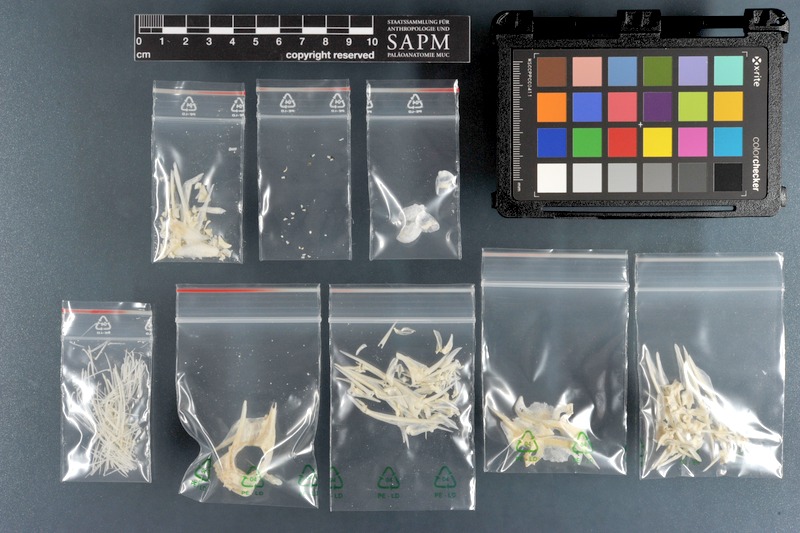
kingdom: Animalia
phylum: Chordata
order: Perciformes
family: Acanthuridae
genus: Acanthurus
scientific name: Acanthurus leucosternon
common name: Blue surgeonfish
